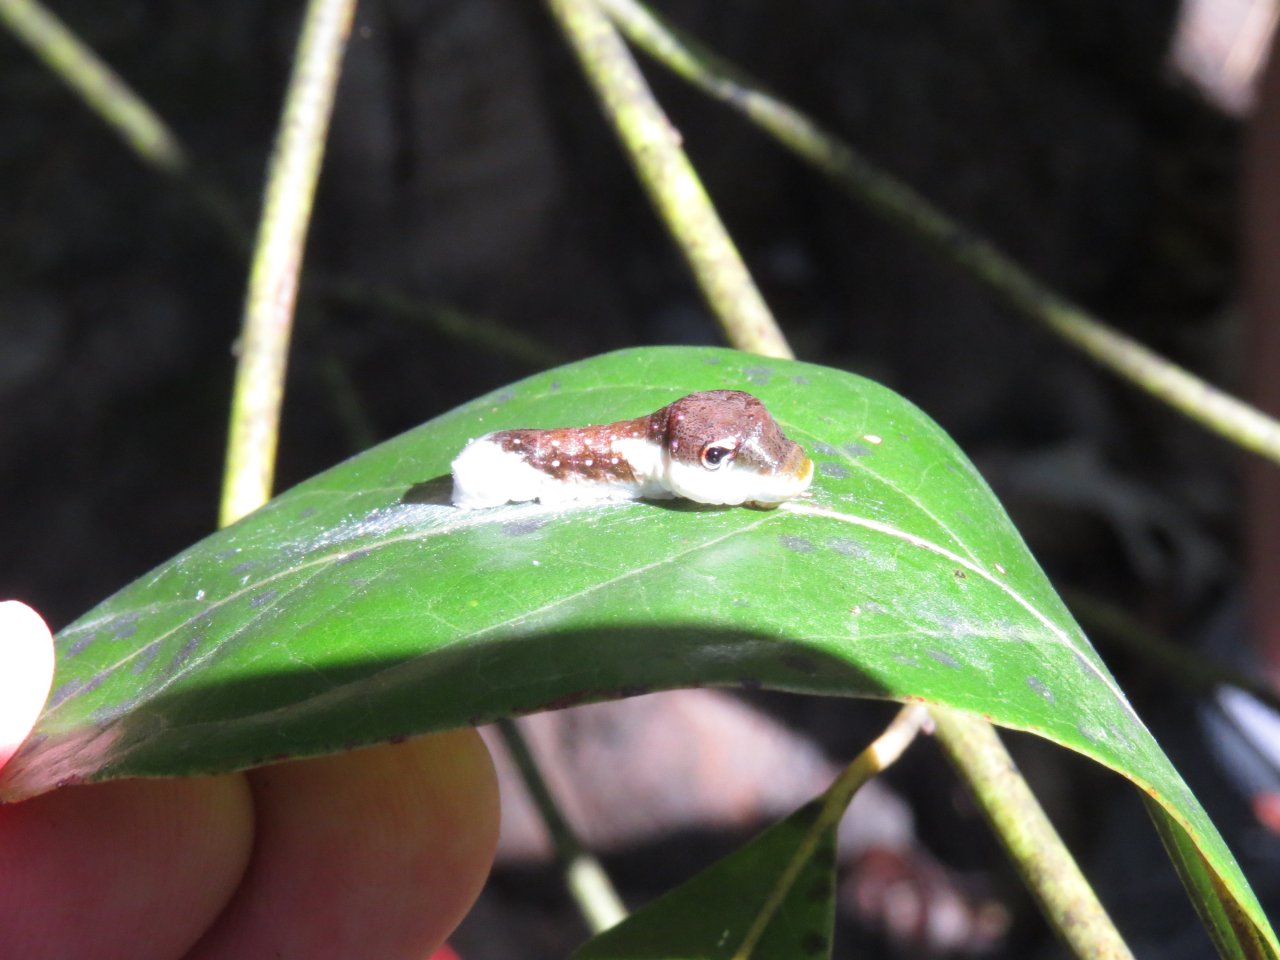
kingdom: Animalia
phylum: Arthropoda
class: Insecta
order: Lepidoptera
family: Papilionidae
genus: Pterourus
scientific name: Pterourus palamedes
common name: Palamedes Swallowtail
